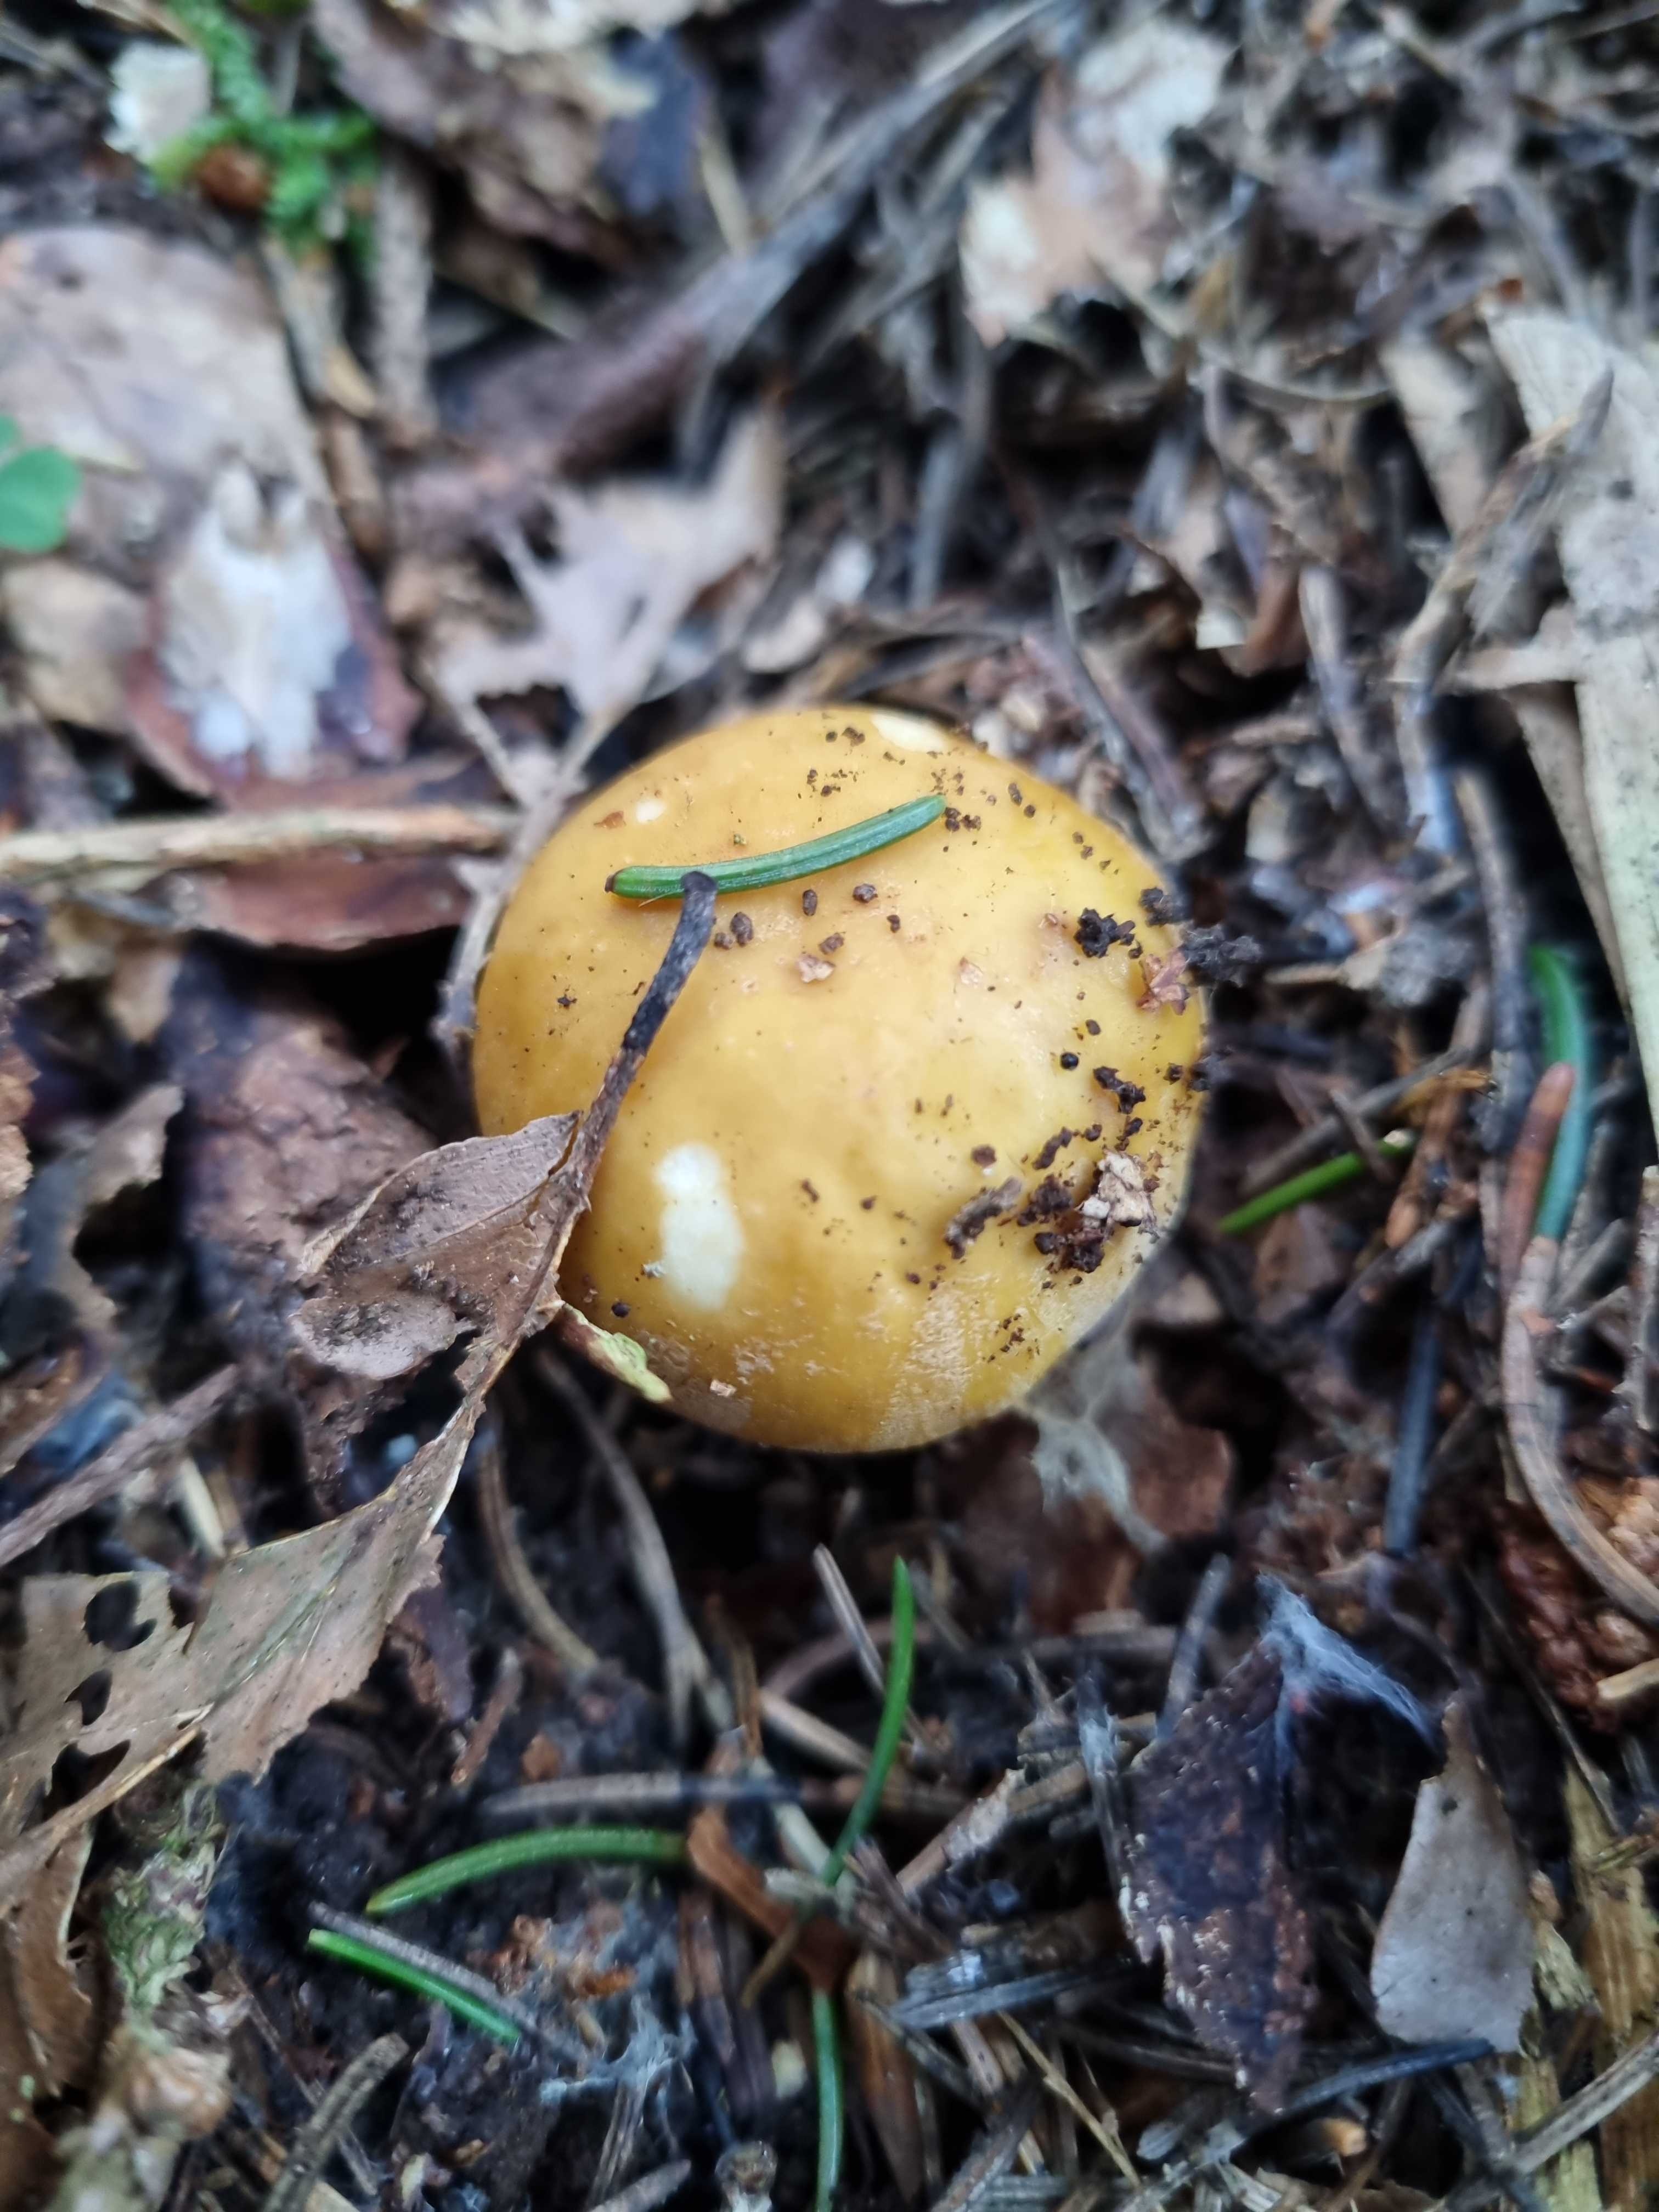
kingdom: Fungi
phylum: Basidiomycota
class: Agaricomycetes
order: Russulales
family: Russulaceae
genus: Russula
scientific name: Russula
